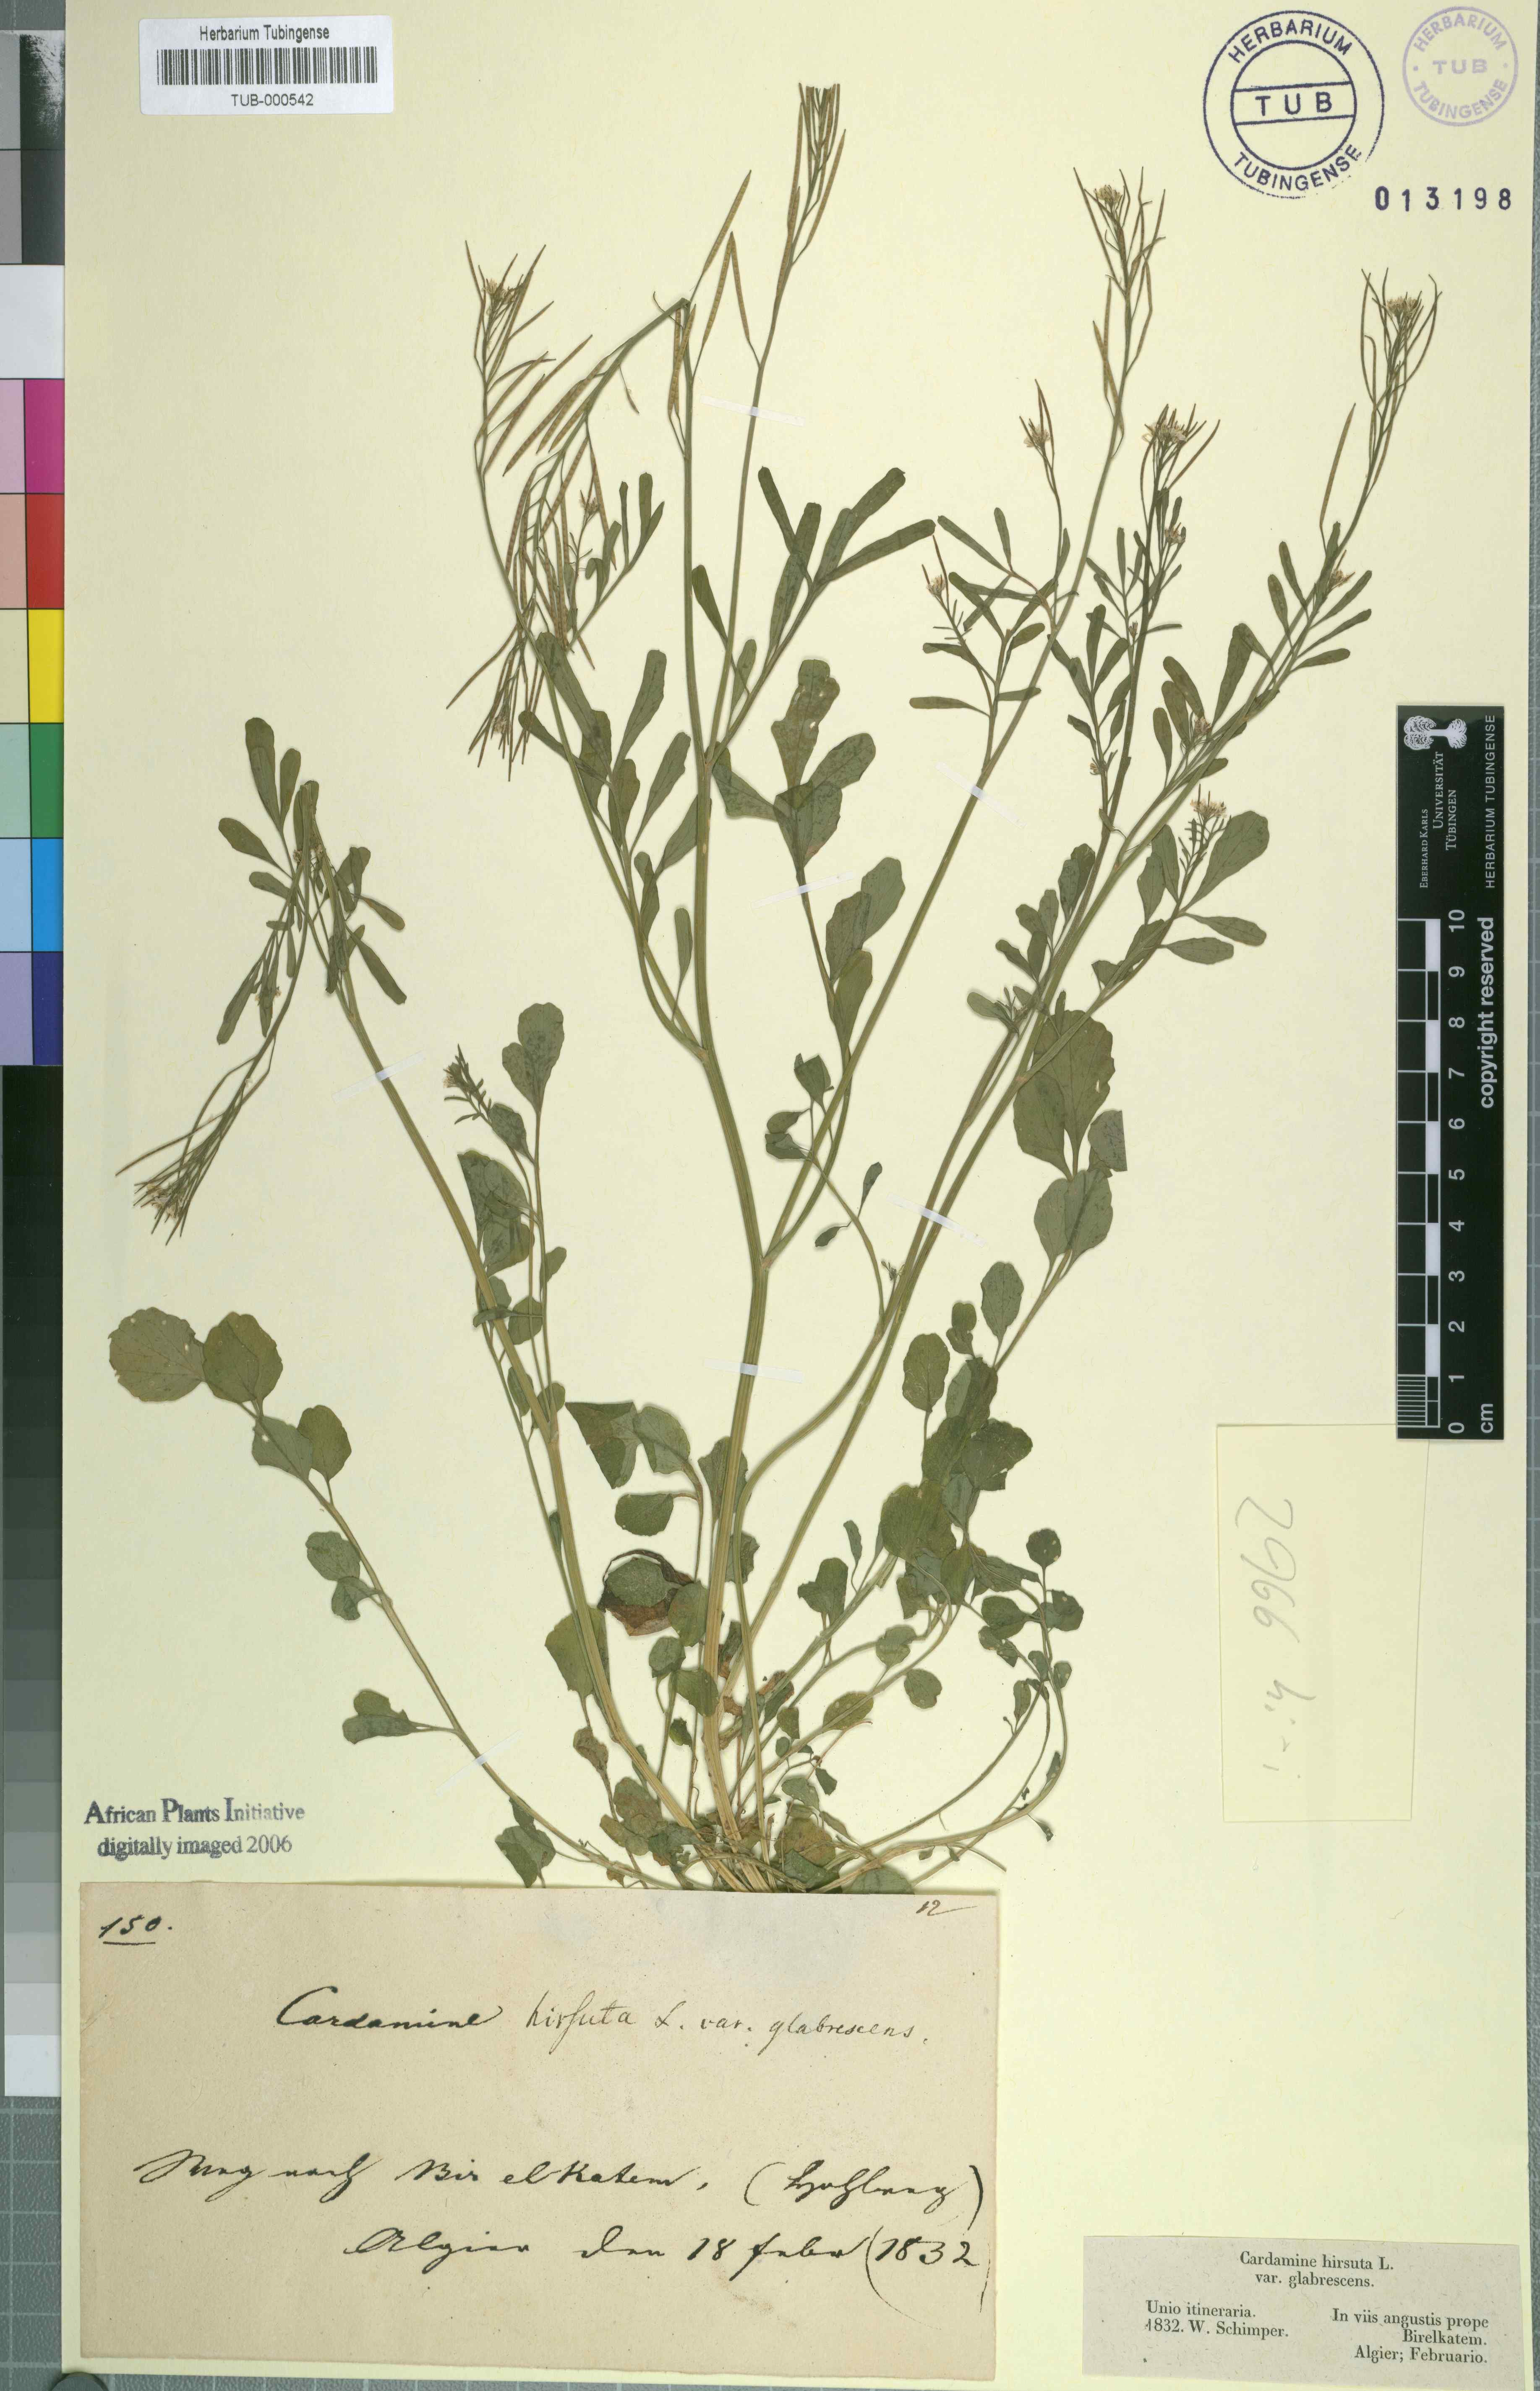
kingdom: Plantae
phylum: Tracheophyta
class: Magnoliopsida
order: Brassicales
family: Brassicaceae
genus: Cardamine
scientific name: Cardamine hirsuta
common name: Hairy bittercress
